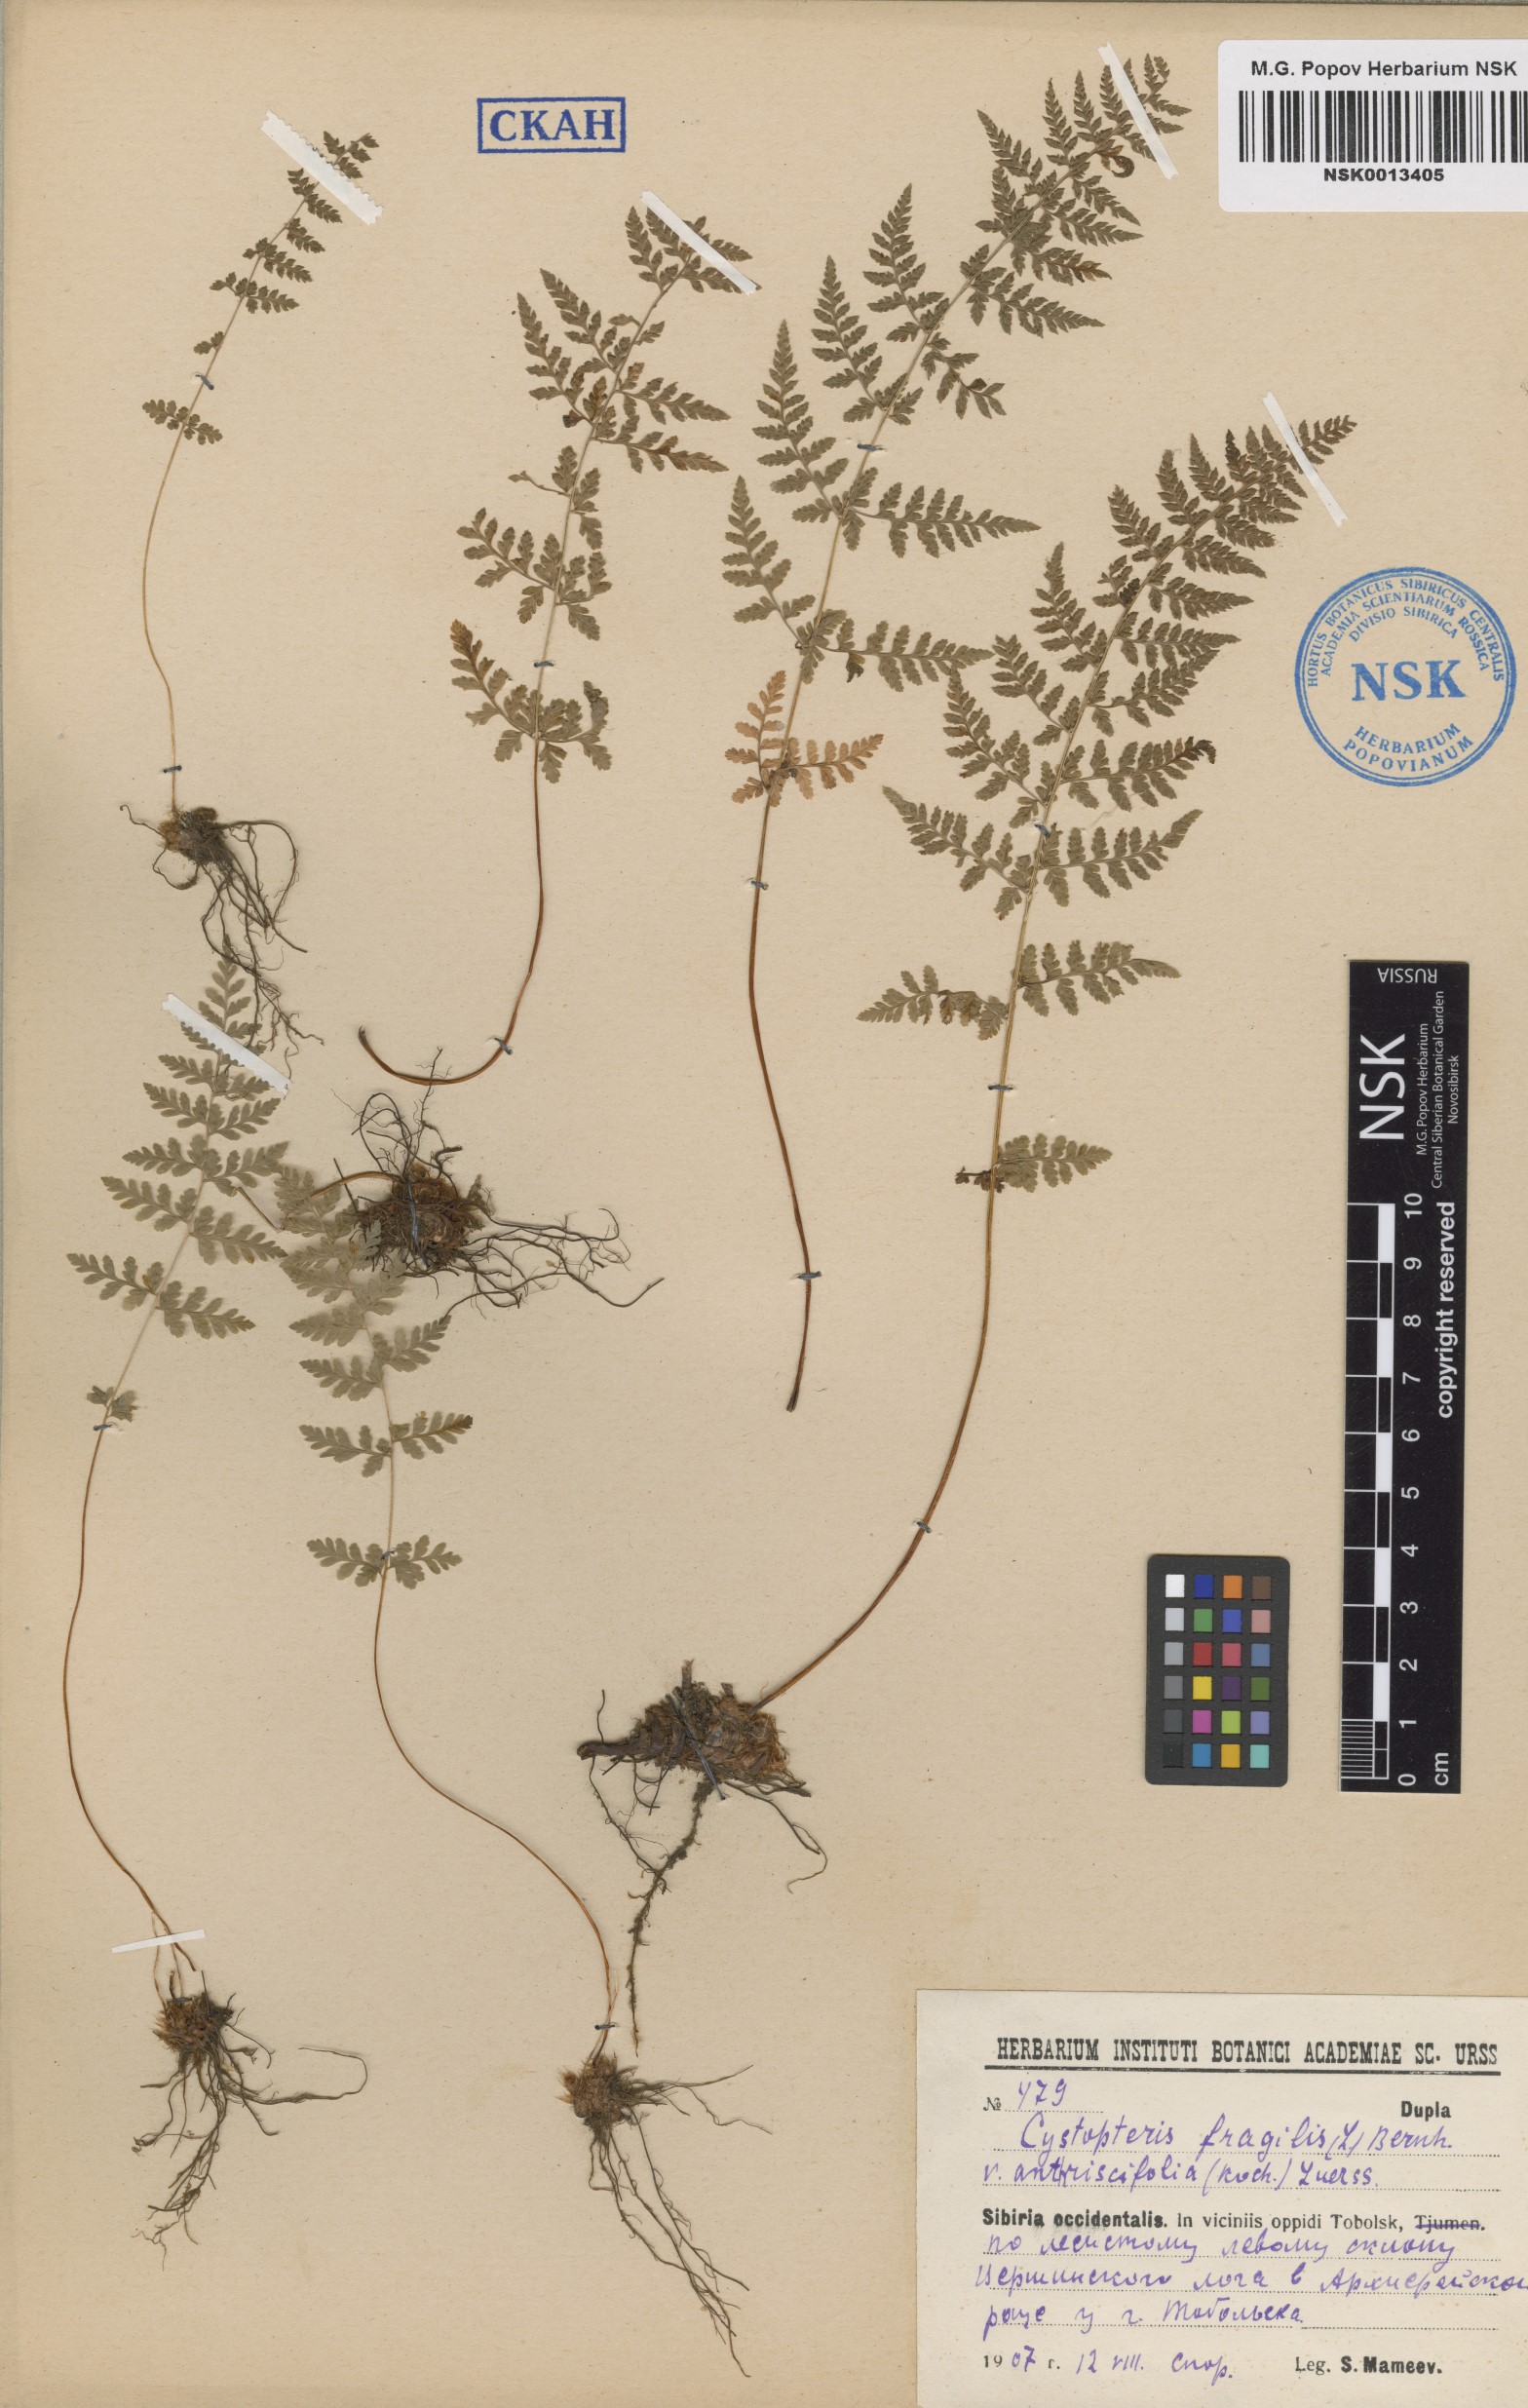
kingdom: Plantae
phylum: Tracheophyta
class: Polypodiopsida
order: Polypodiales
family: Cystopteridaceae
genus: Cystopteris
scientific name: Cystopteris fragilis
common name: Brittle bladder fern
